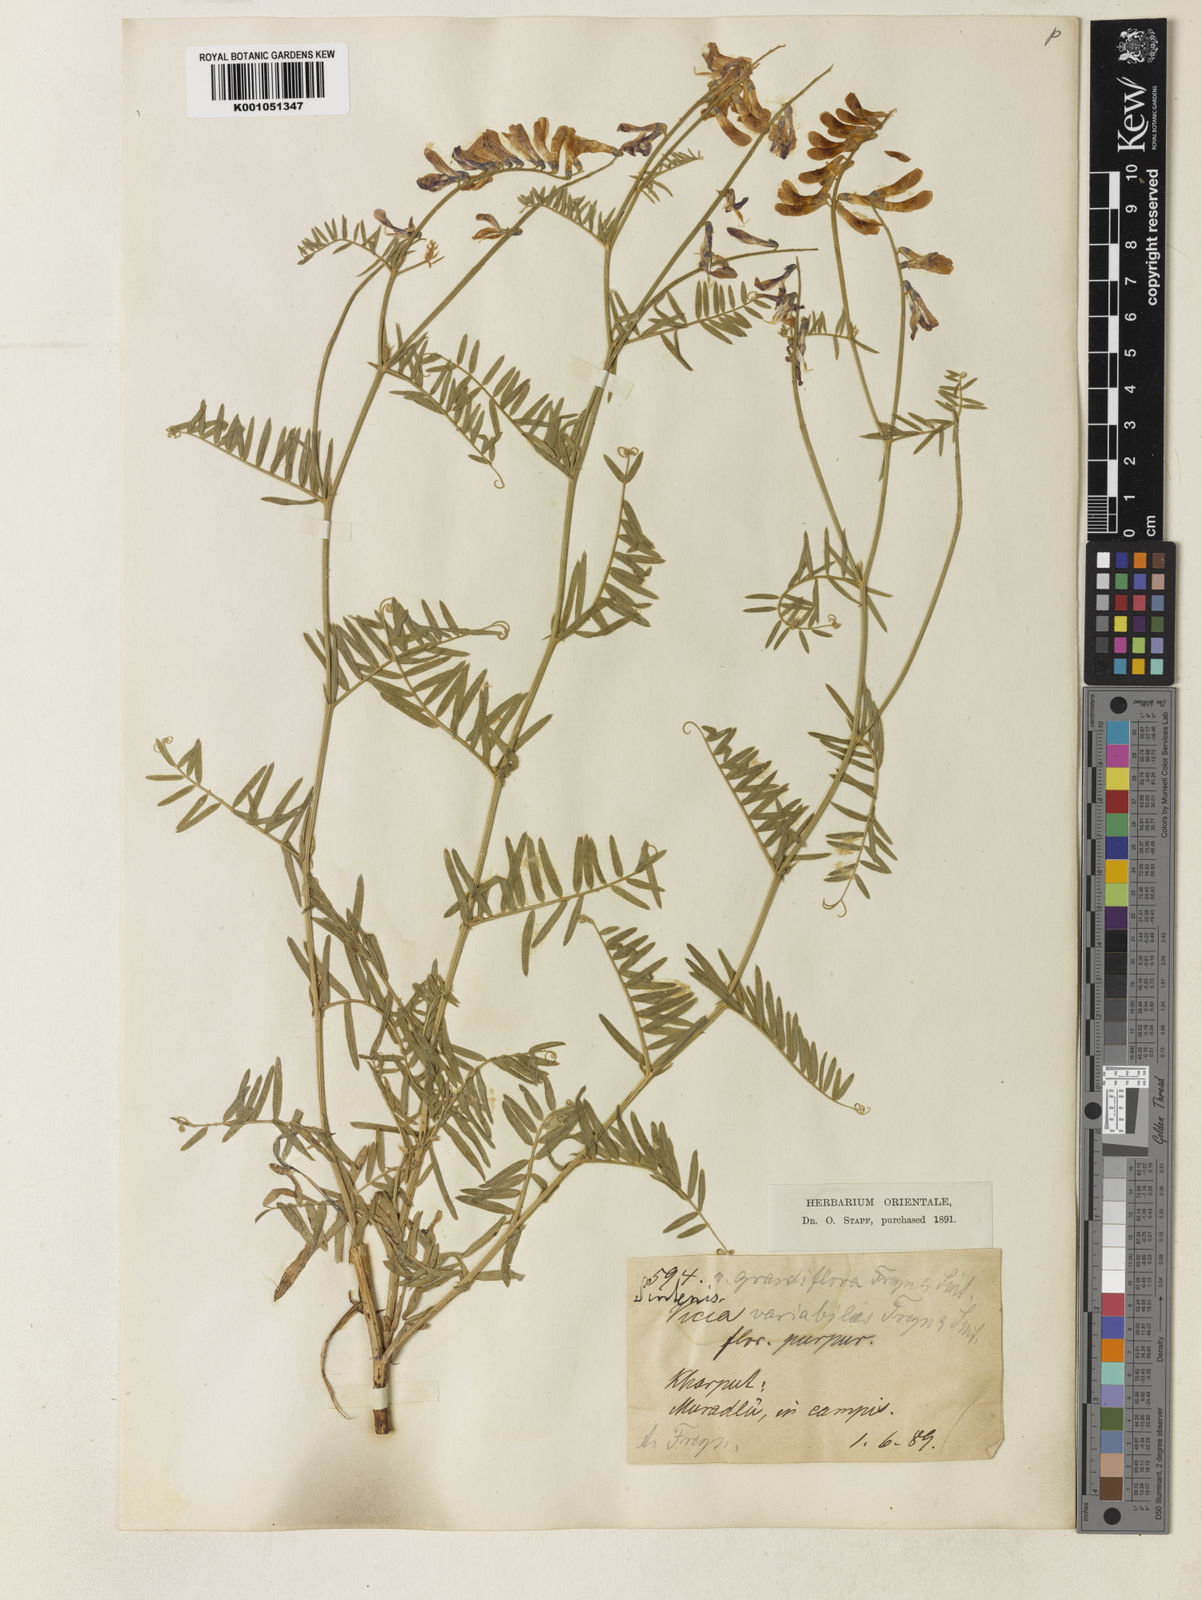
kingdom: Plantae
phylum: Tracheophyta
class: Magnoliopsida
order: Fabales
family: Fabaceae
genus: Vicia
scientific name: Vicia tenuifolia
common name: Fine-leaved vetch
